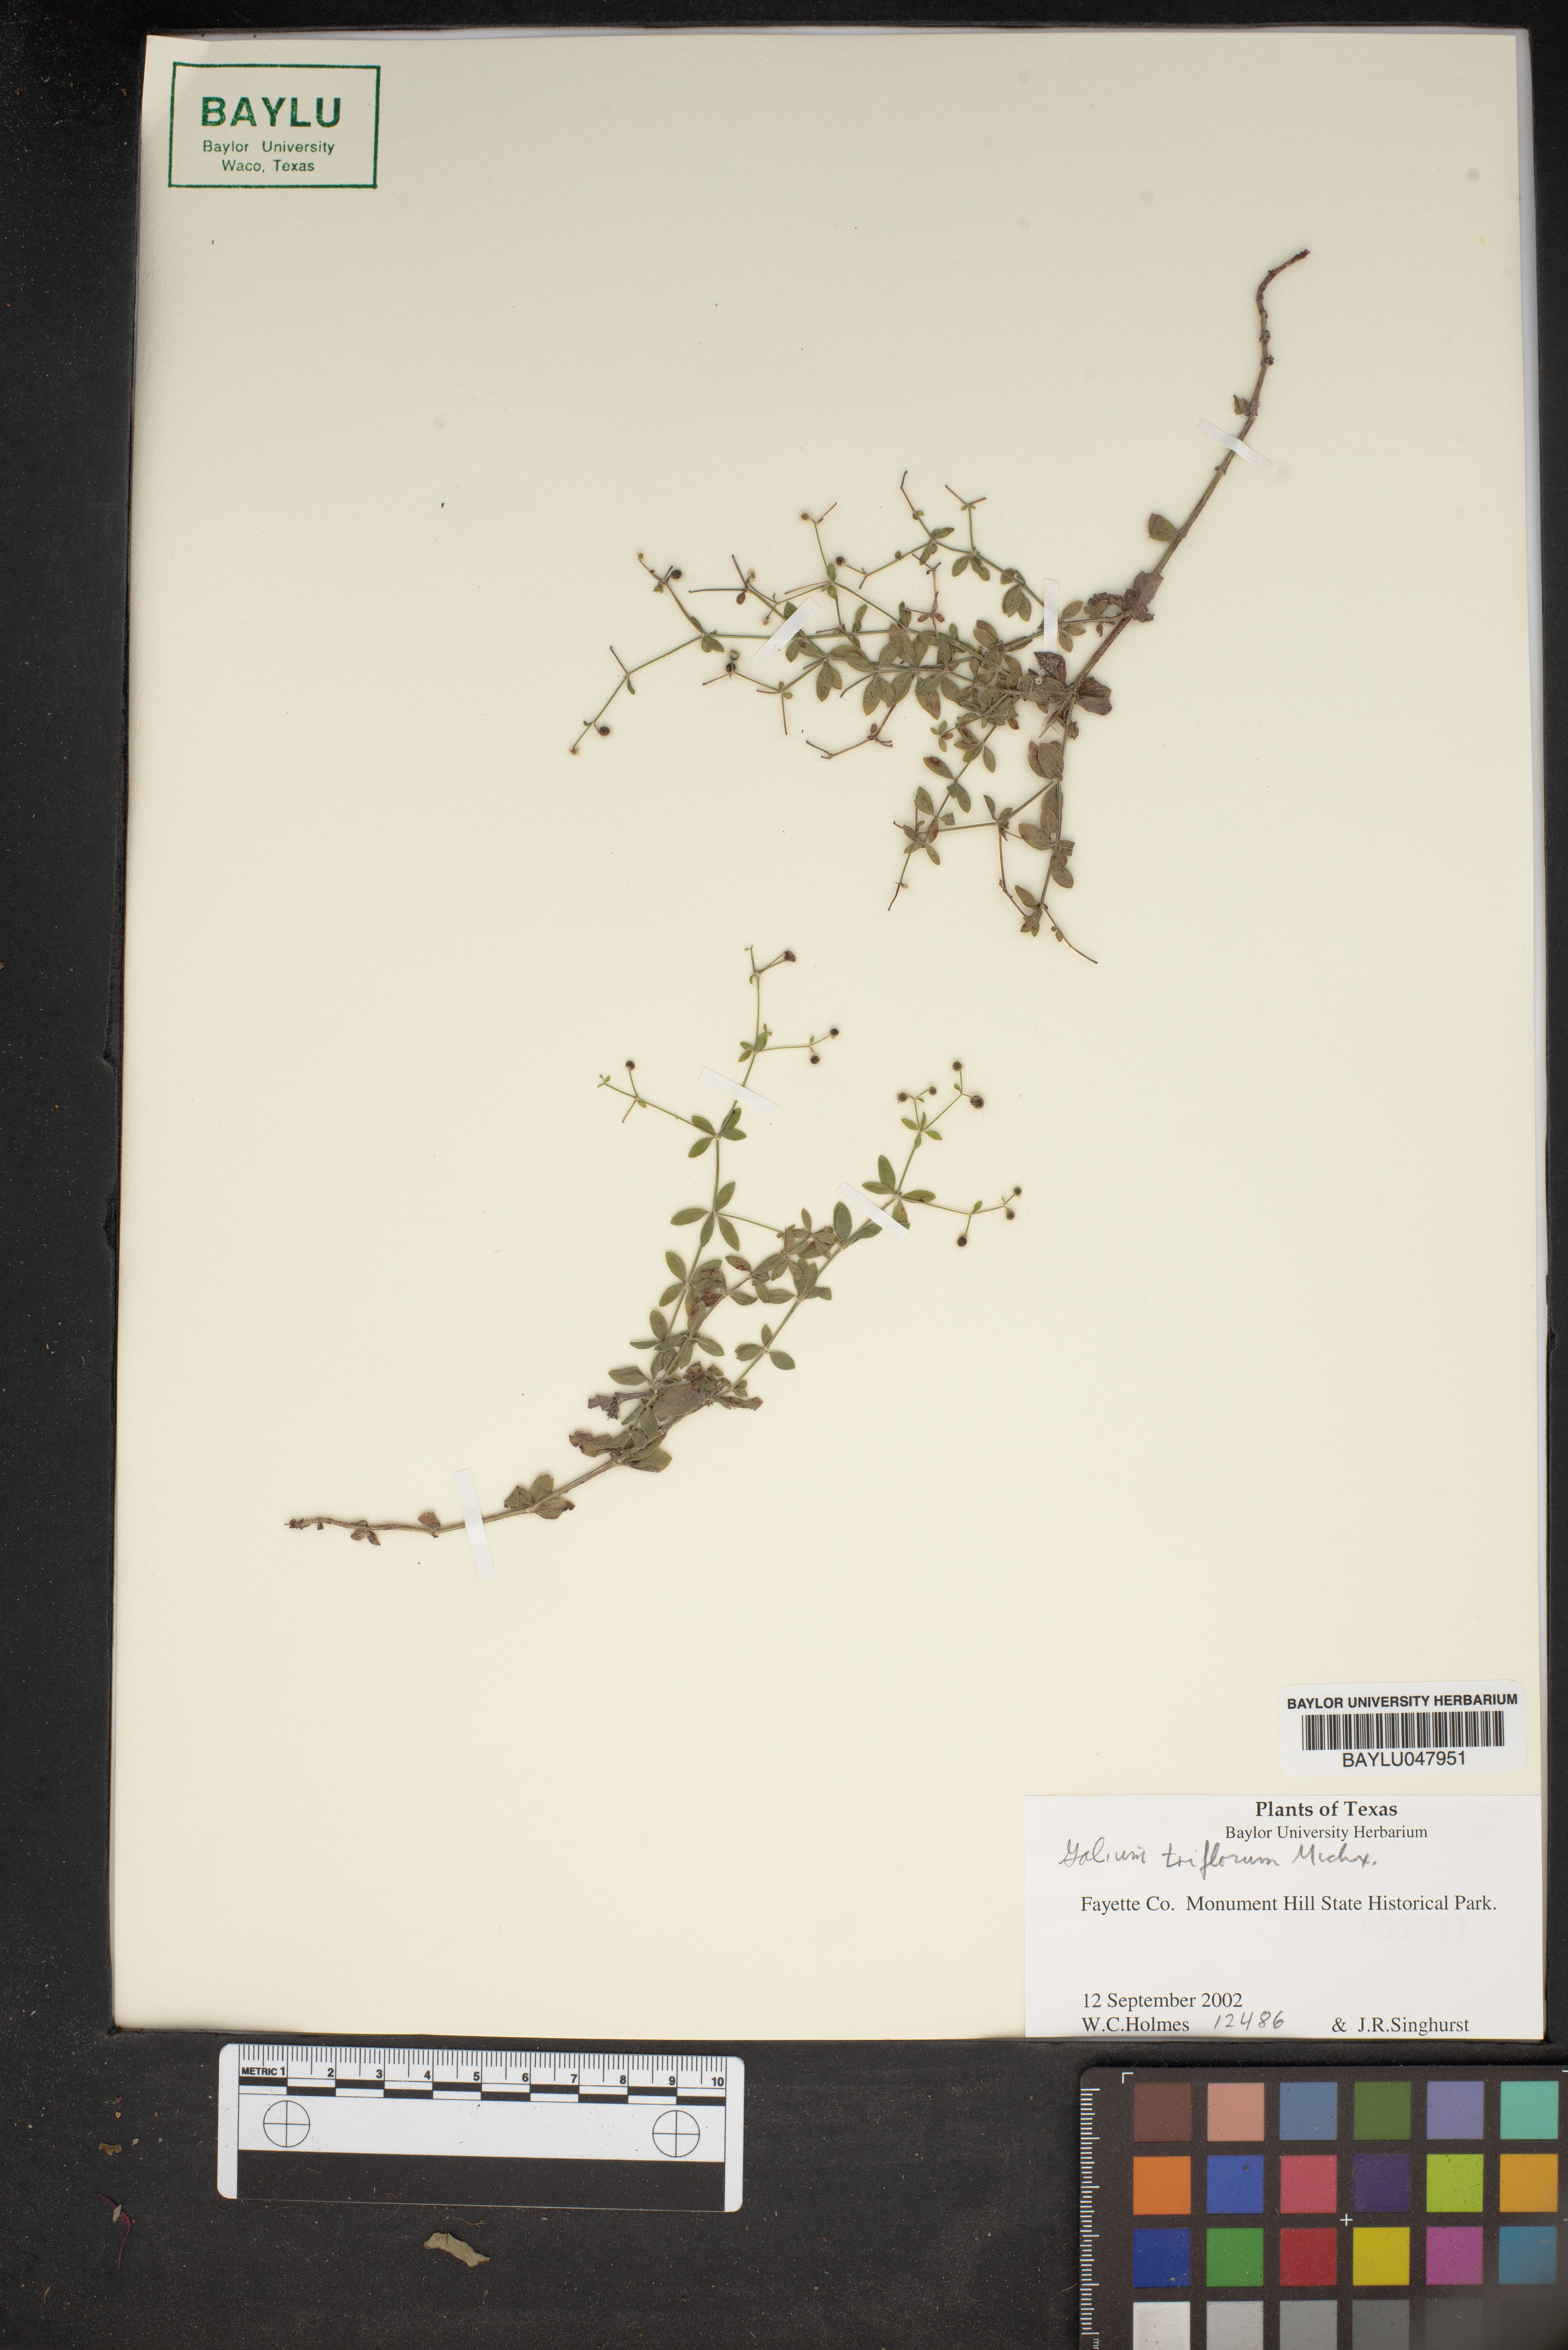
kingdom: Plantae
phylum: Tracheophyta
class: Magnoliopsida
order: Gentianales
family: Rubiaceae
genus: Galium
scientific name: Galium triflorum
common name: Fragrant bedstraw
